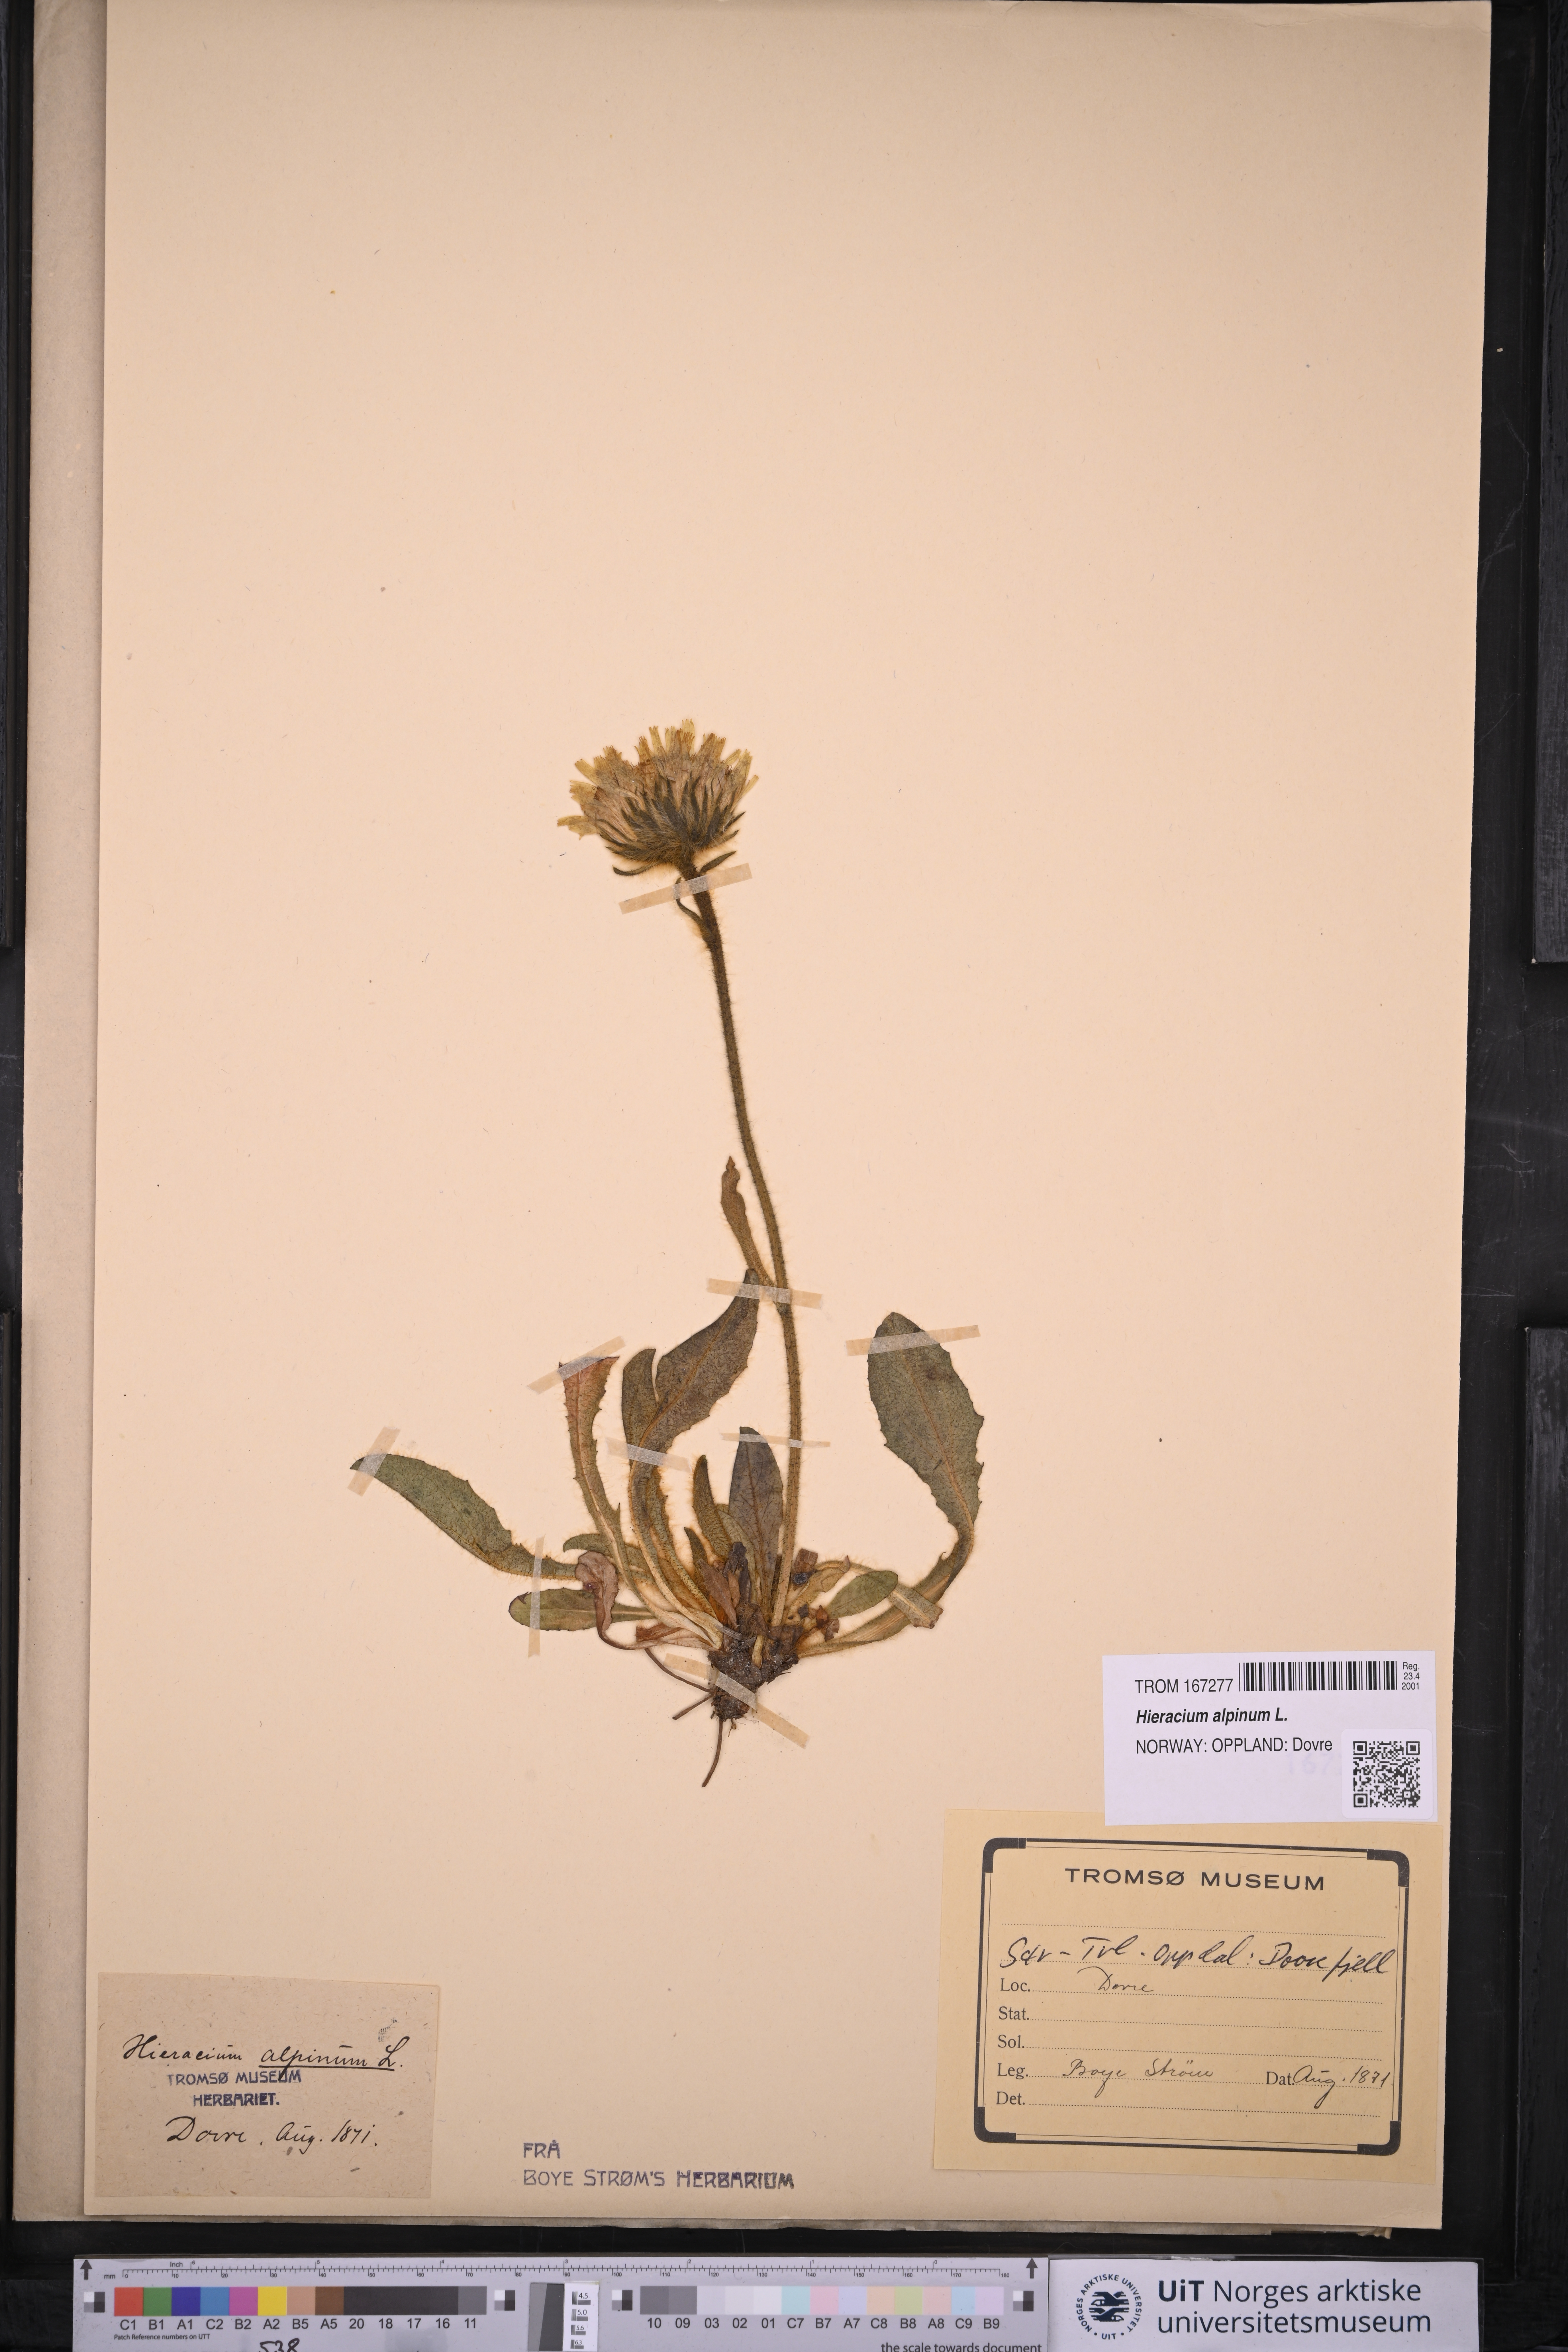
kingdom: Plantae
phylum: Tracheophyta
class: Magnoliopsida
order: Asterales
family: Asteraceae
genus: Hieracium
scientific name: Hieracium alpinum
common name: Alpine hawkweed
